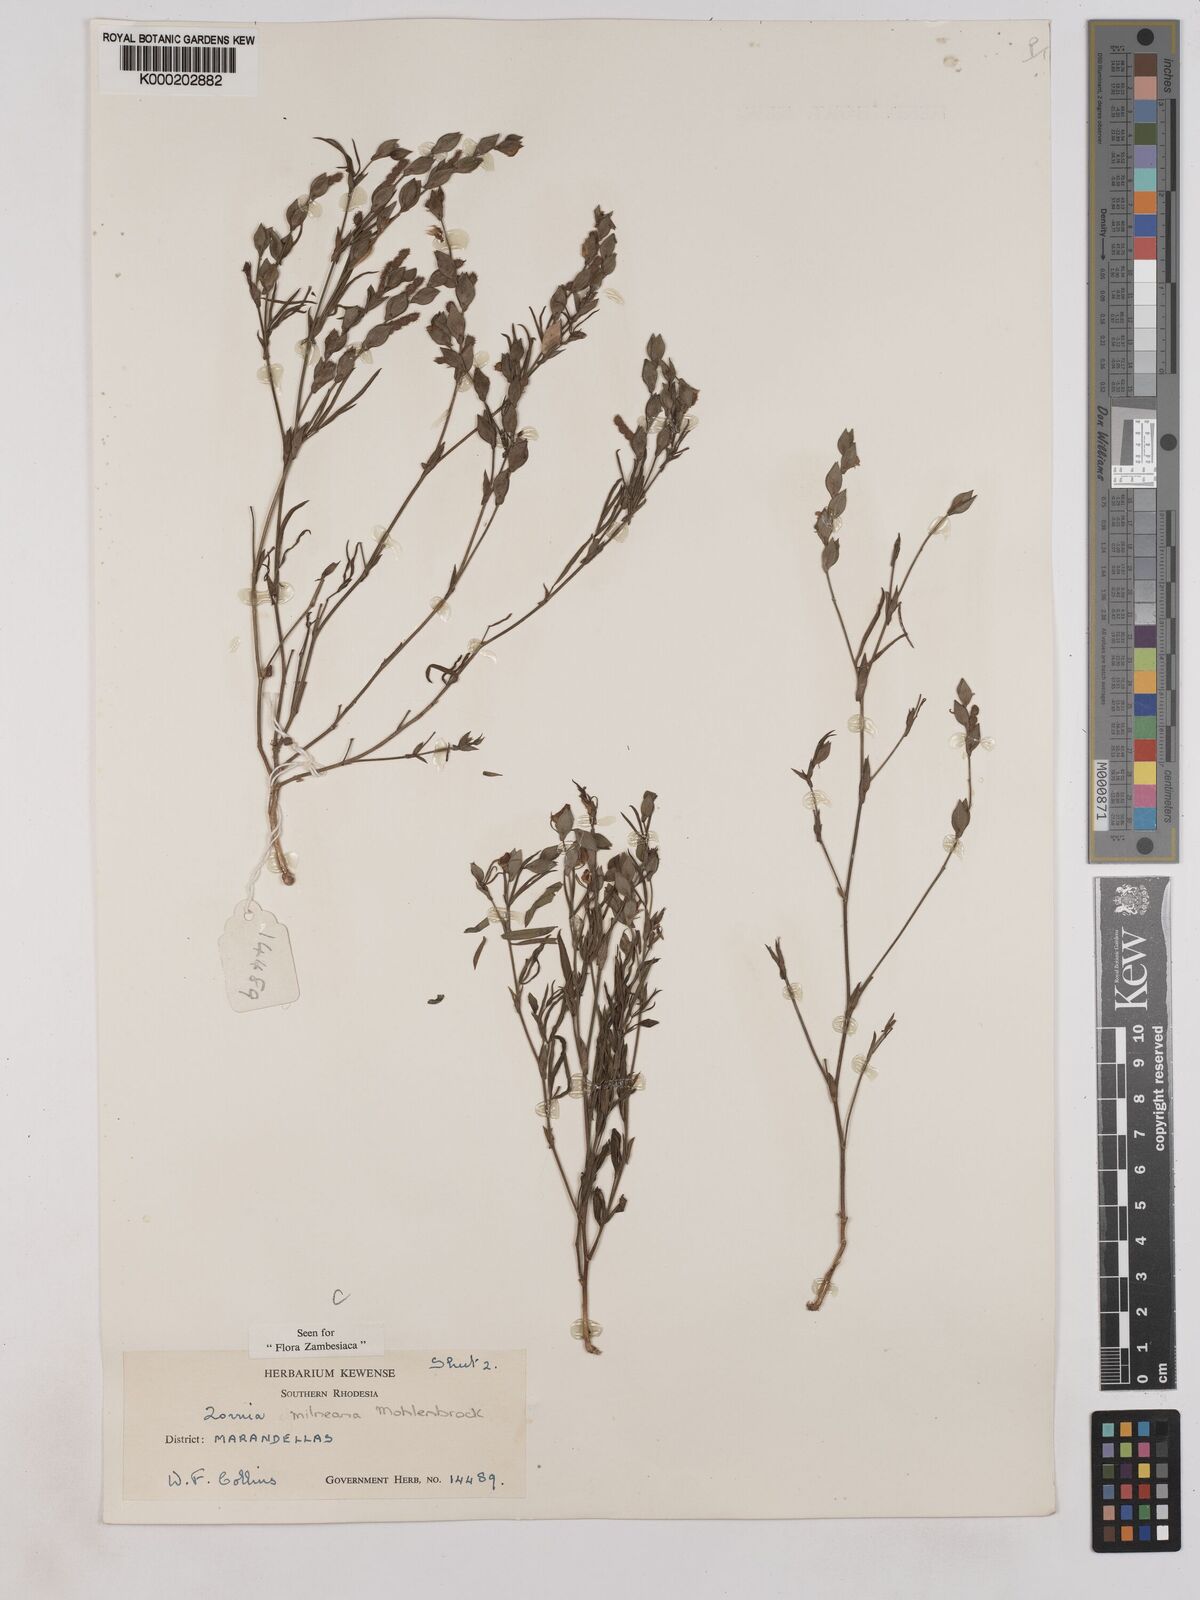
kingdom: Plantae
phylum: Tracheophyta
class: Magnoliopsida
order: Fabales
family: Fabaceae
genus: Zornia
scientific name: Zornia milneana
